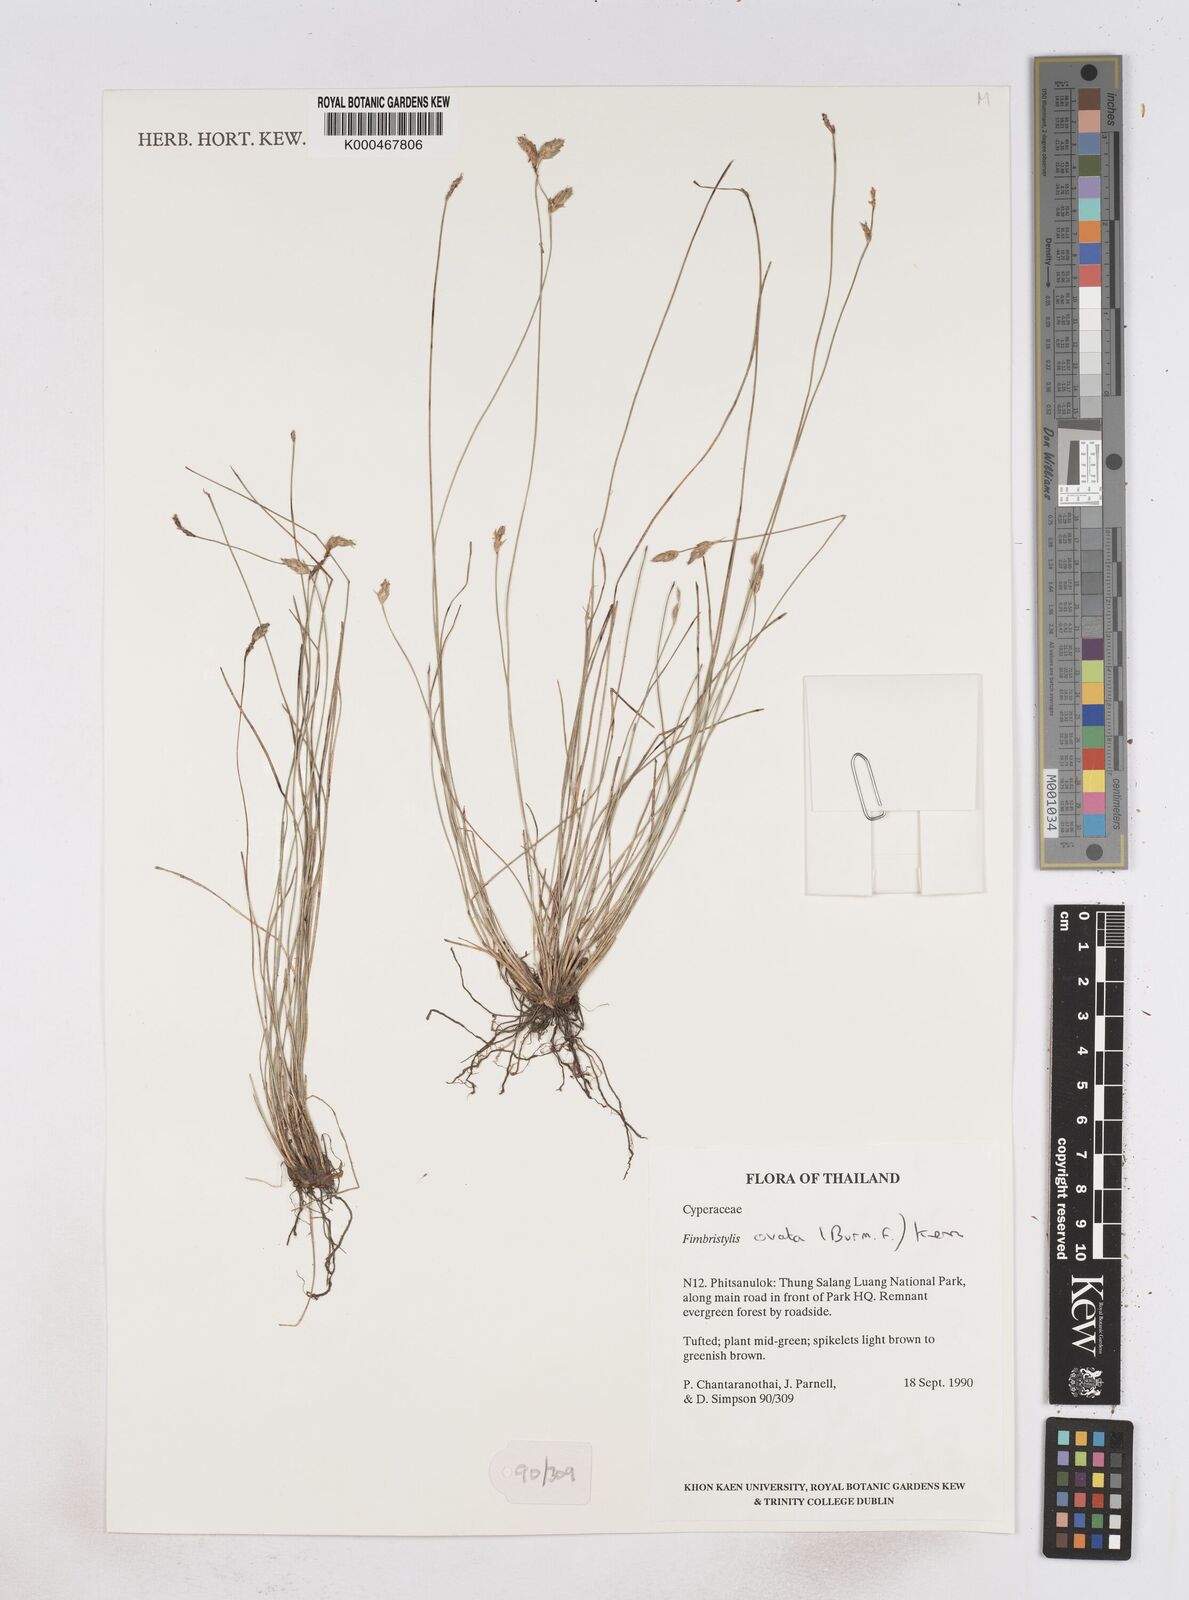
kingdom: Plantae
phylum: Tracheophyta
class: Liliopsida
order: Poales
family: Cyperaceae
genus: Abildgaardia
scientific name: Abildgaardia ovata
